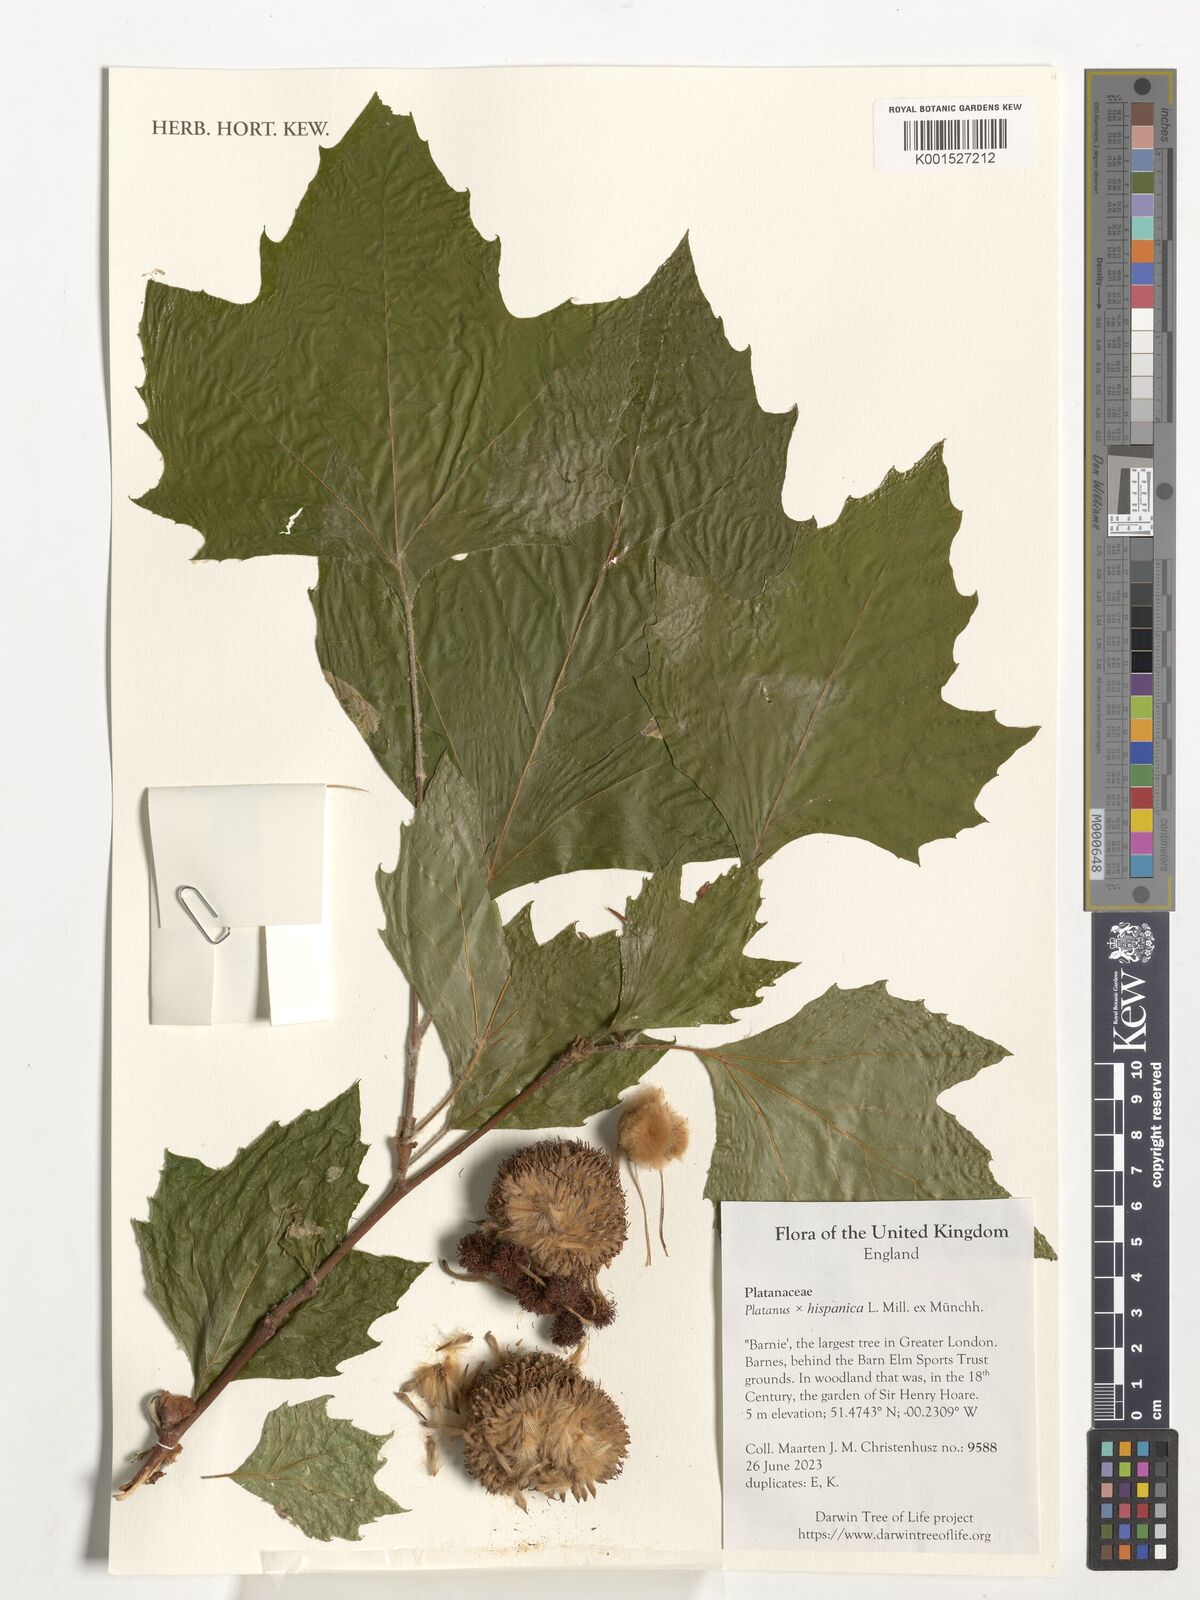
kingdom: Plantae
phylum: Tracheophyta
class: Magnoliopsida
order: Proteales
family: Platanaceae
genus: Platanus
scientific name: Platanus hispanica
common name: London plane
